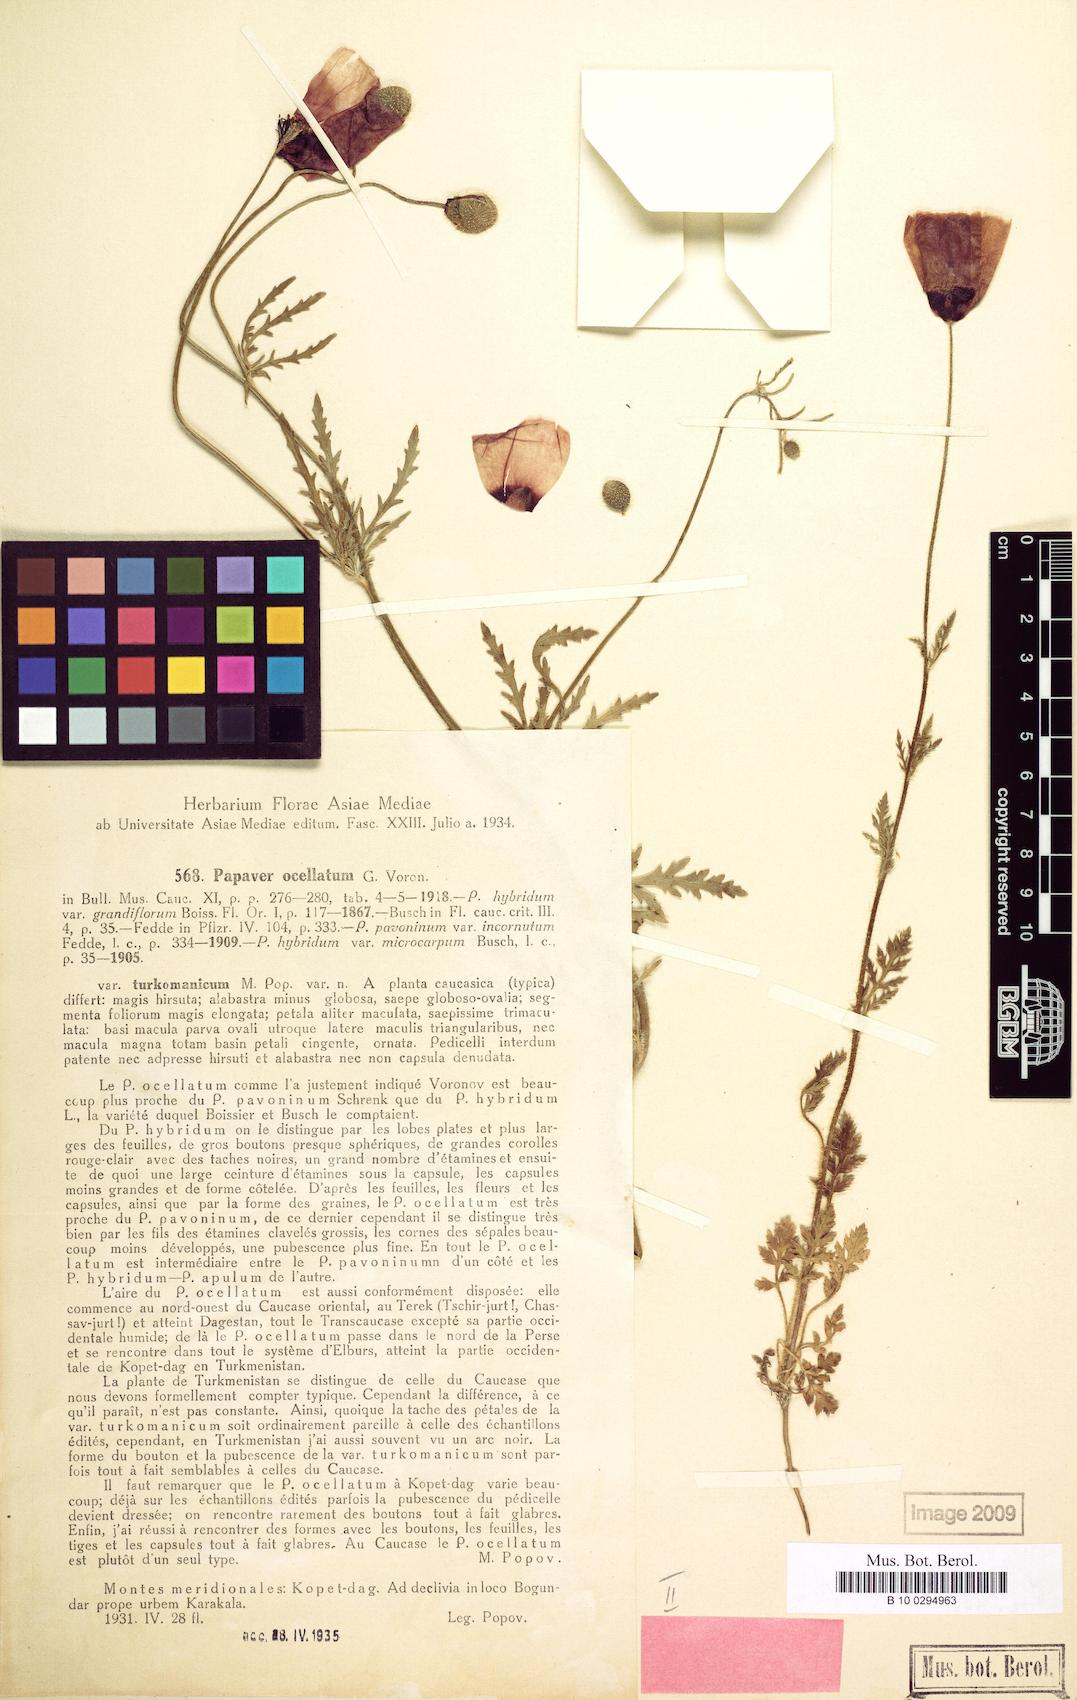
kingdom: Plantae
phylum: Tracheophyta
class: Magnoliopsida
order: Ranunculales
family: Papaveraceae
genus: Roemeria
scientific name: Roemeria ocellata
